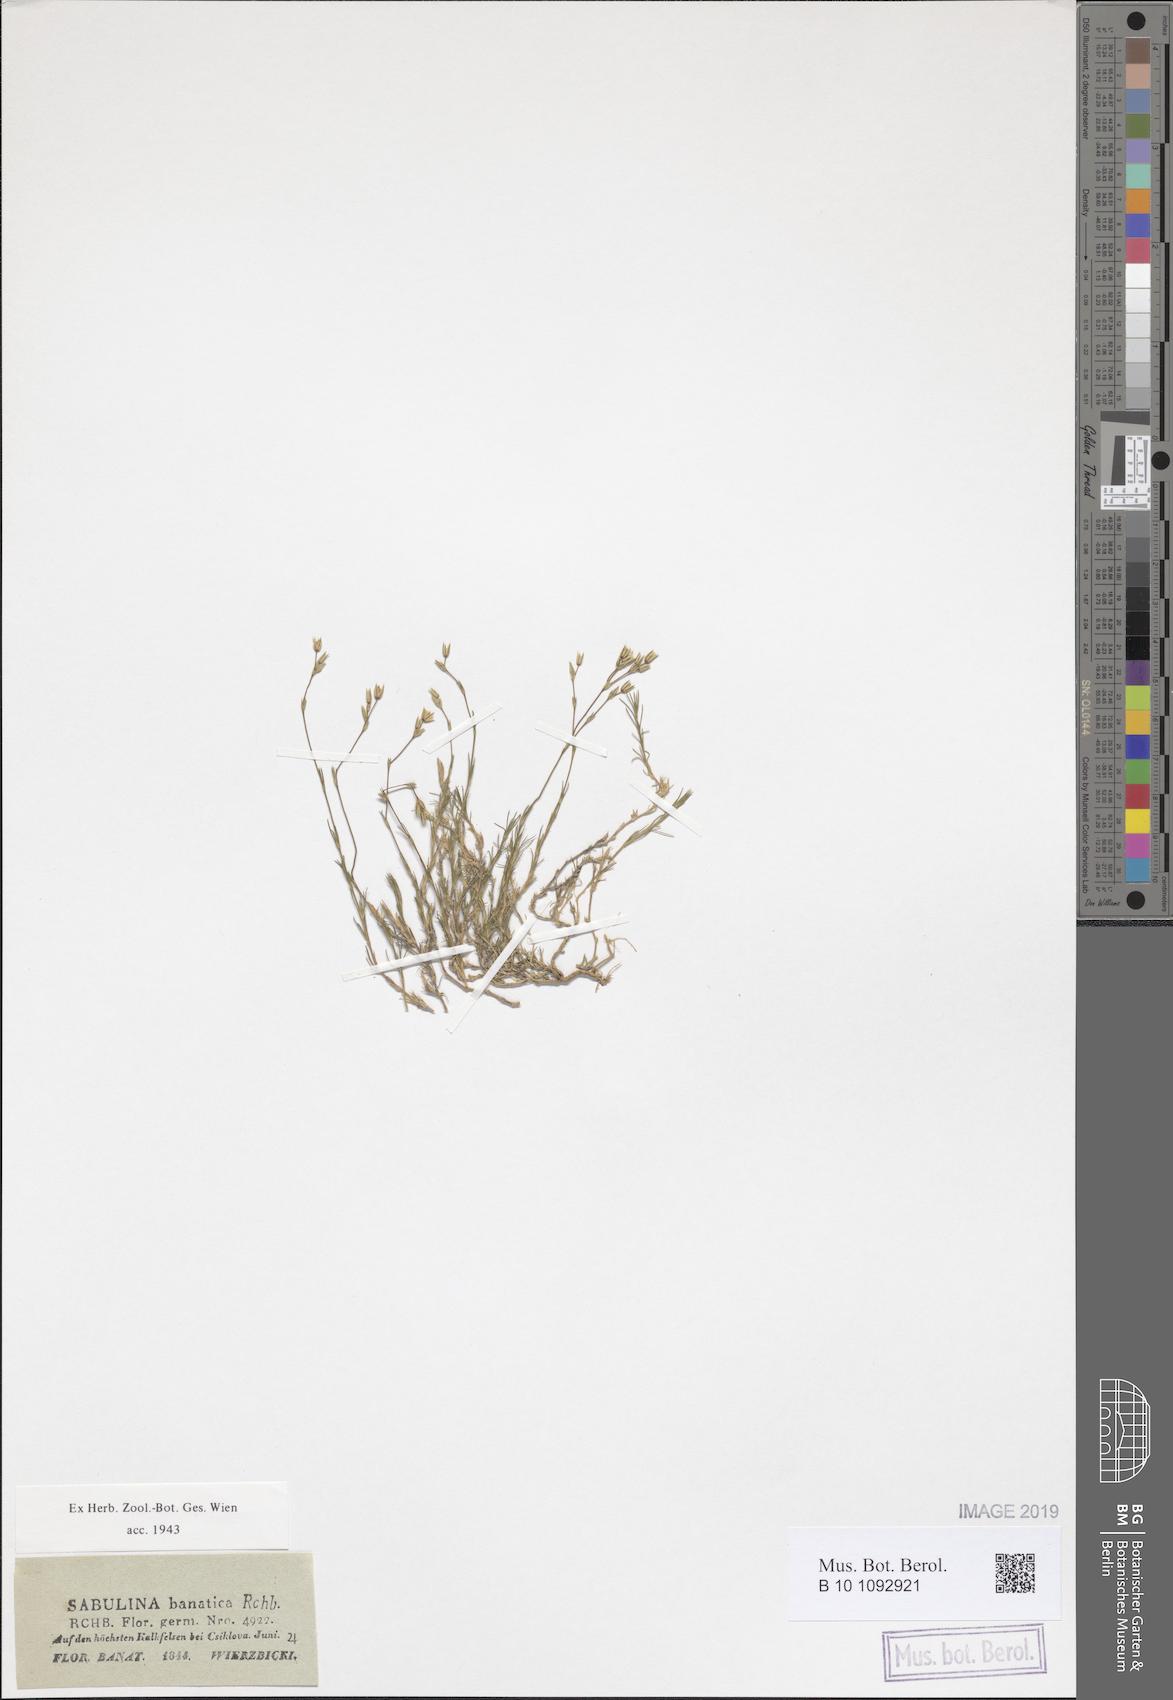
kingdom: Plantae
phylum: Tracheophyta
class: Magnoliopsida
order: Caryophyllales
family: Caryophyllaceae
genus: Minuartia
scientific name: Minuartia setacea
